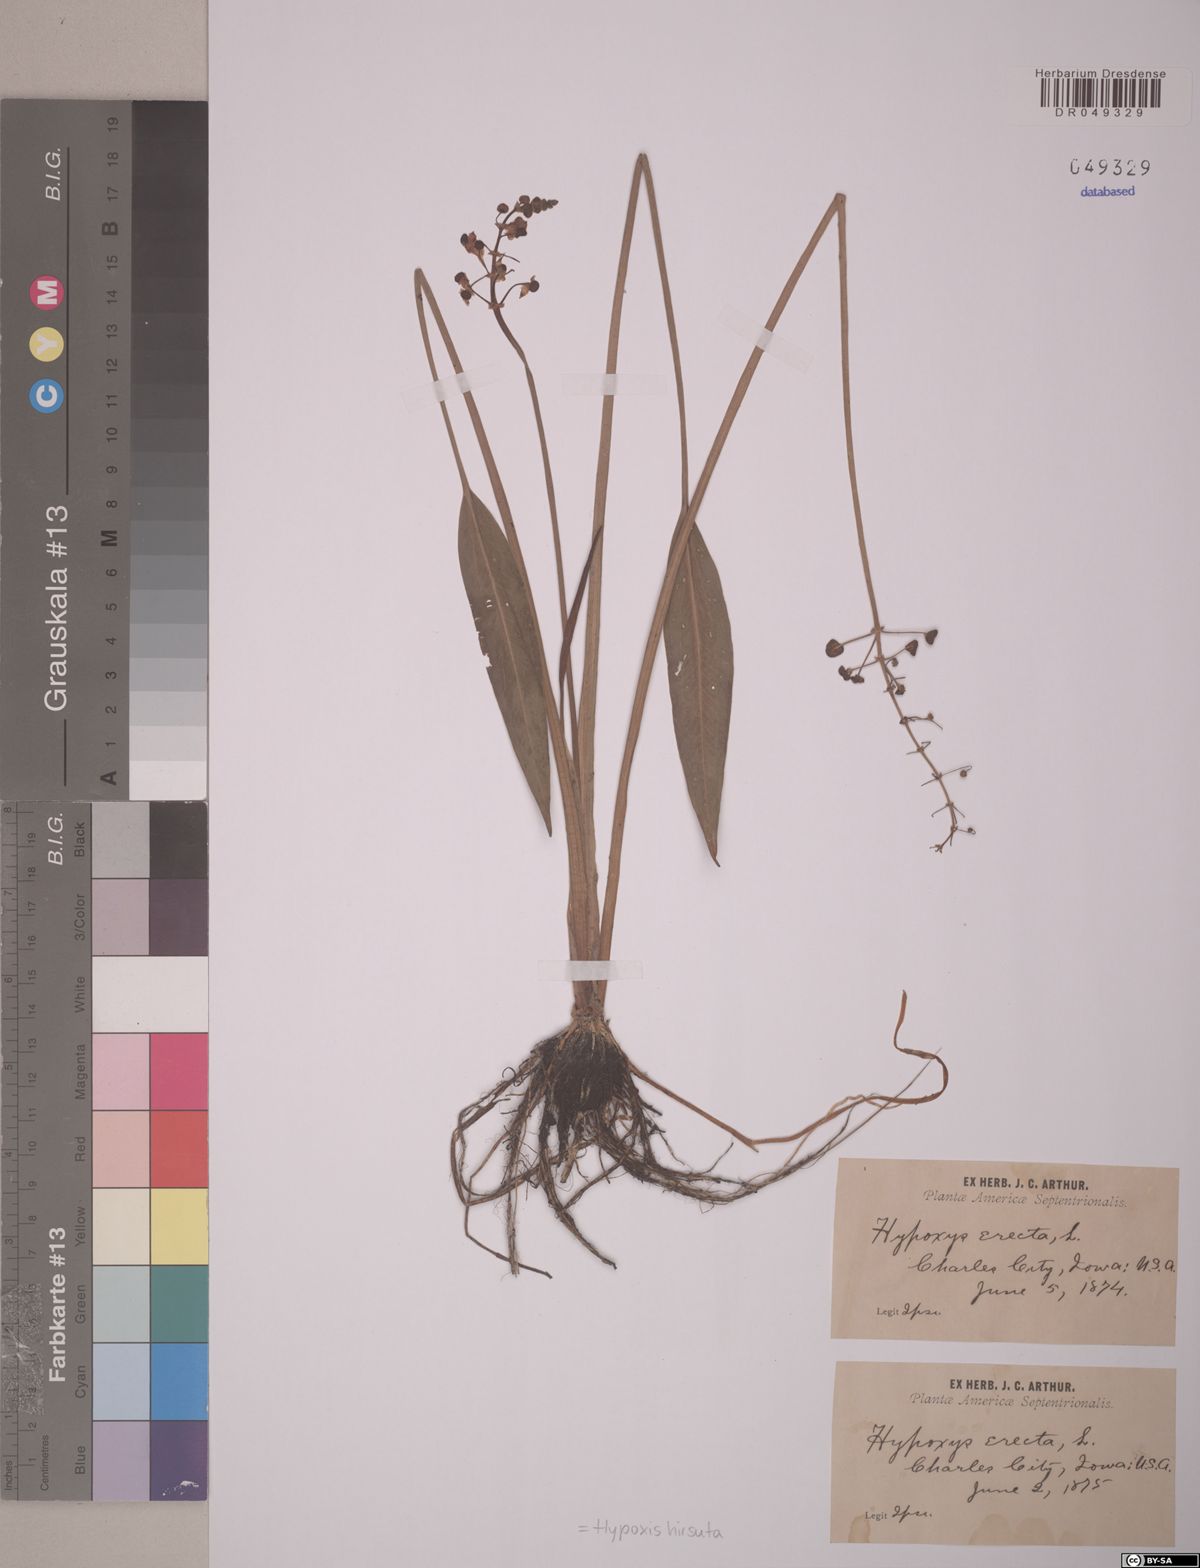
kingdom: Plantae
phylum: Tracheophyta
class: Liliopsida
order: Asparagales
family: Hypoxidaceae
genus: Hypoxis
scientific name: Hypoxis hirsuta
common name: Common goldstar
